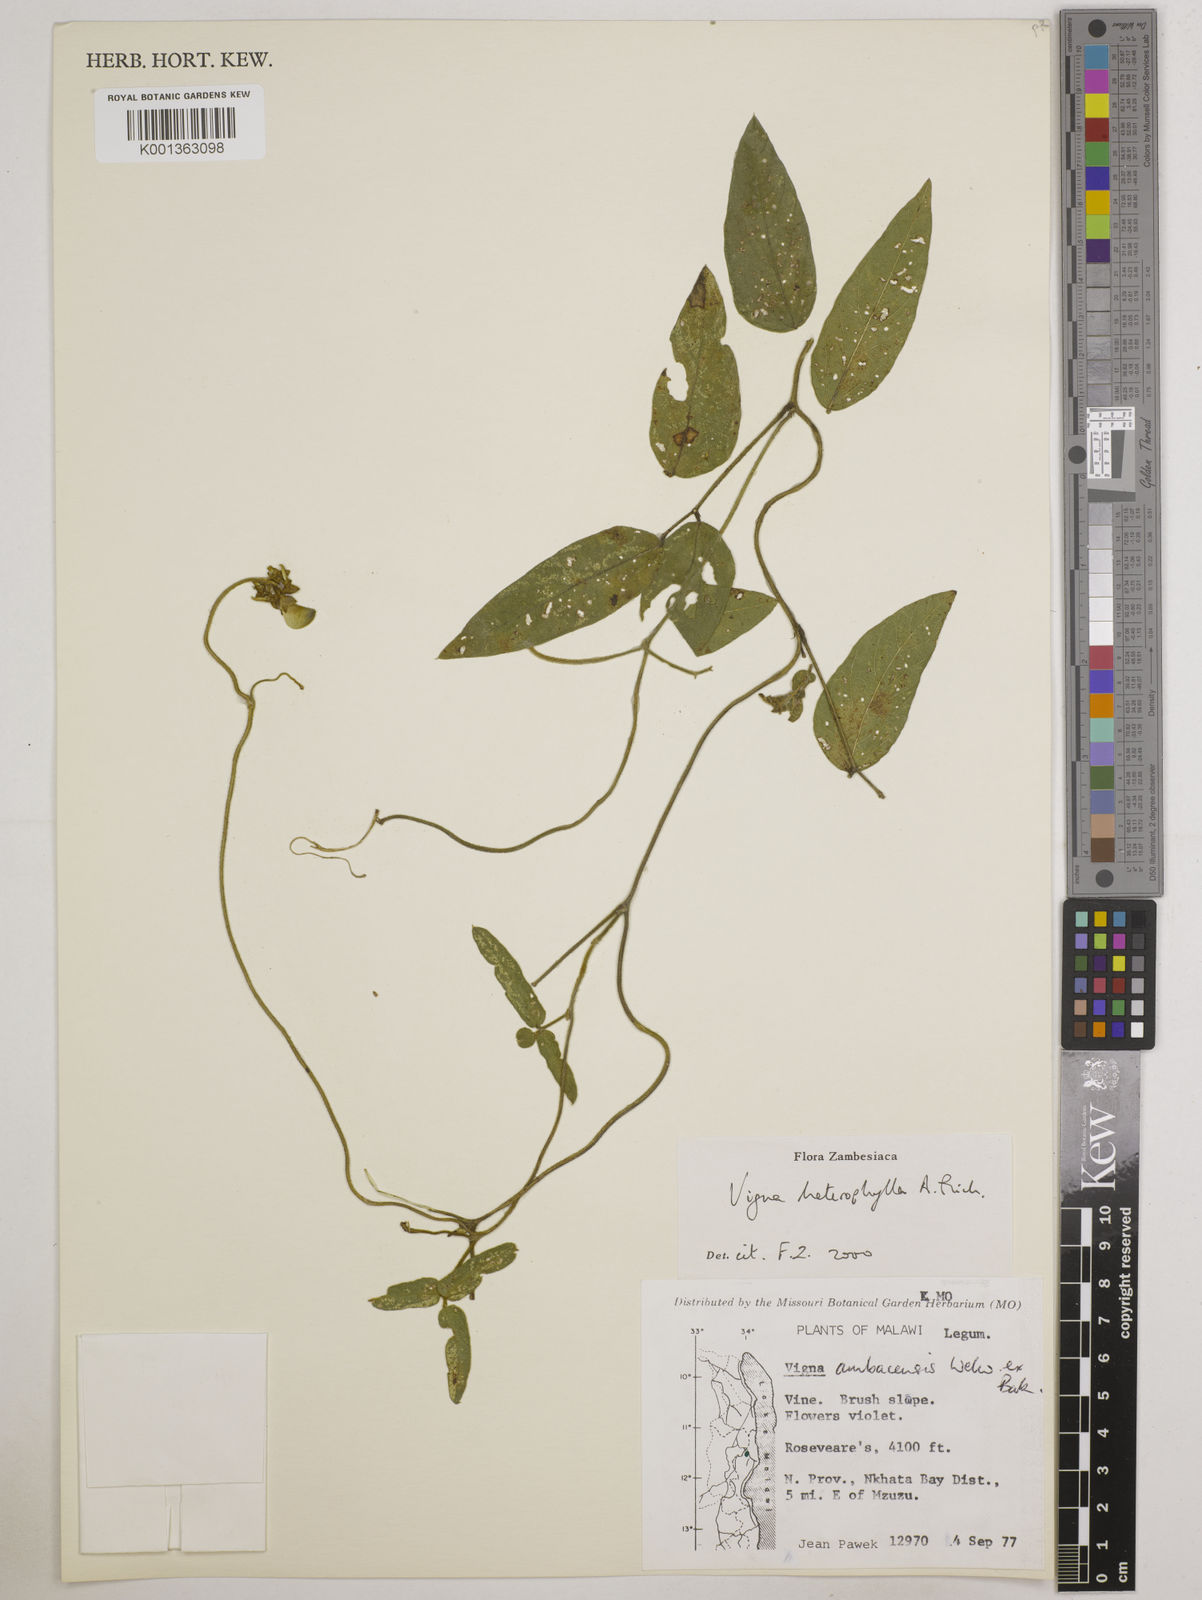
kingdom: Plantae
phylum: Tracheophyta
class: Magnoliopsida
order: Fabales
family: Fabaceae
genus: Vigna
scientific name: Vigna heterophylla
